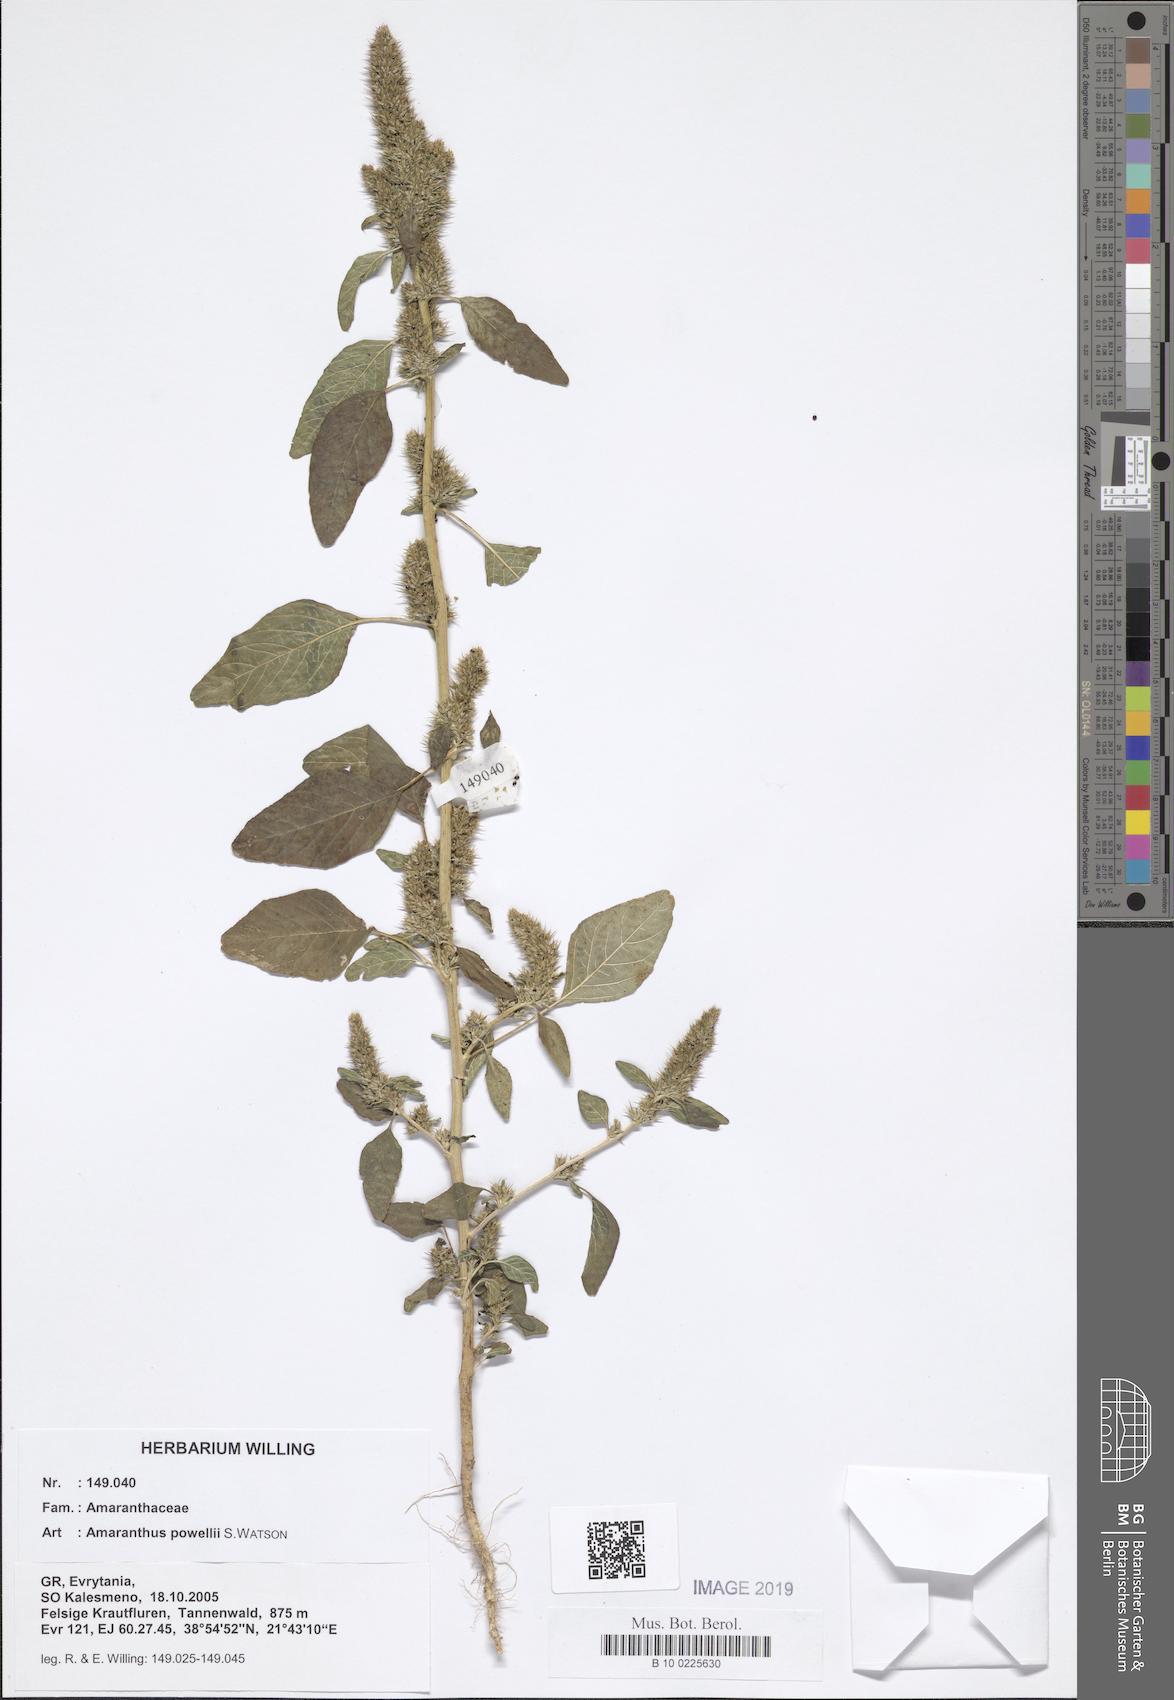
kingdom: Plantae
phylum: Tracheophyta
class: Magnoliopsida
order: Caryophyllales
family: Amaranthaceae
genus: Amaranthus
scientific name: Amaranthus powellii
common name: Powell's amaranth
